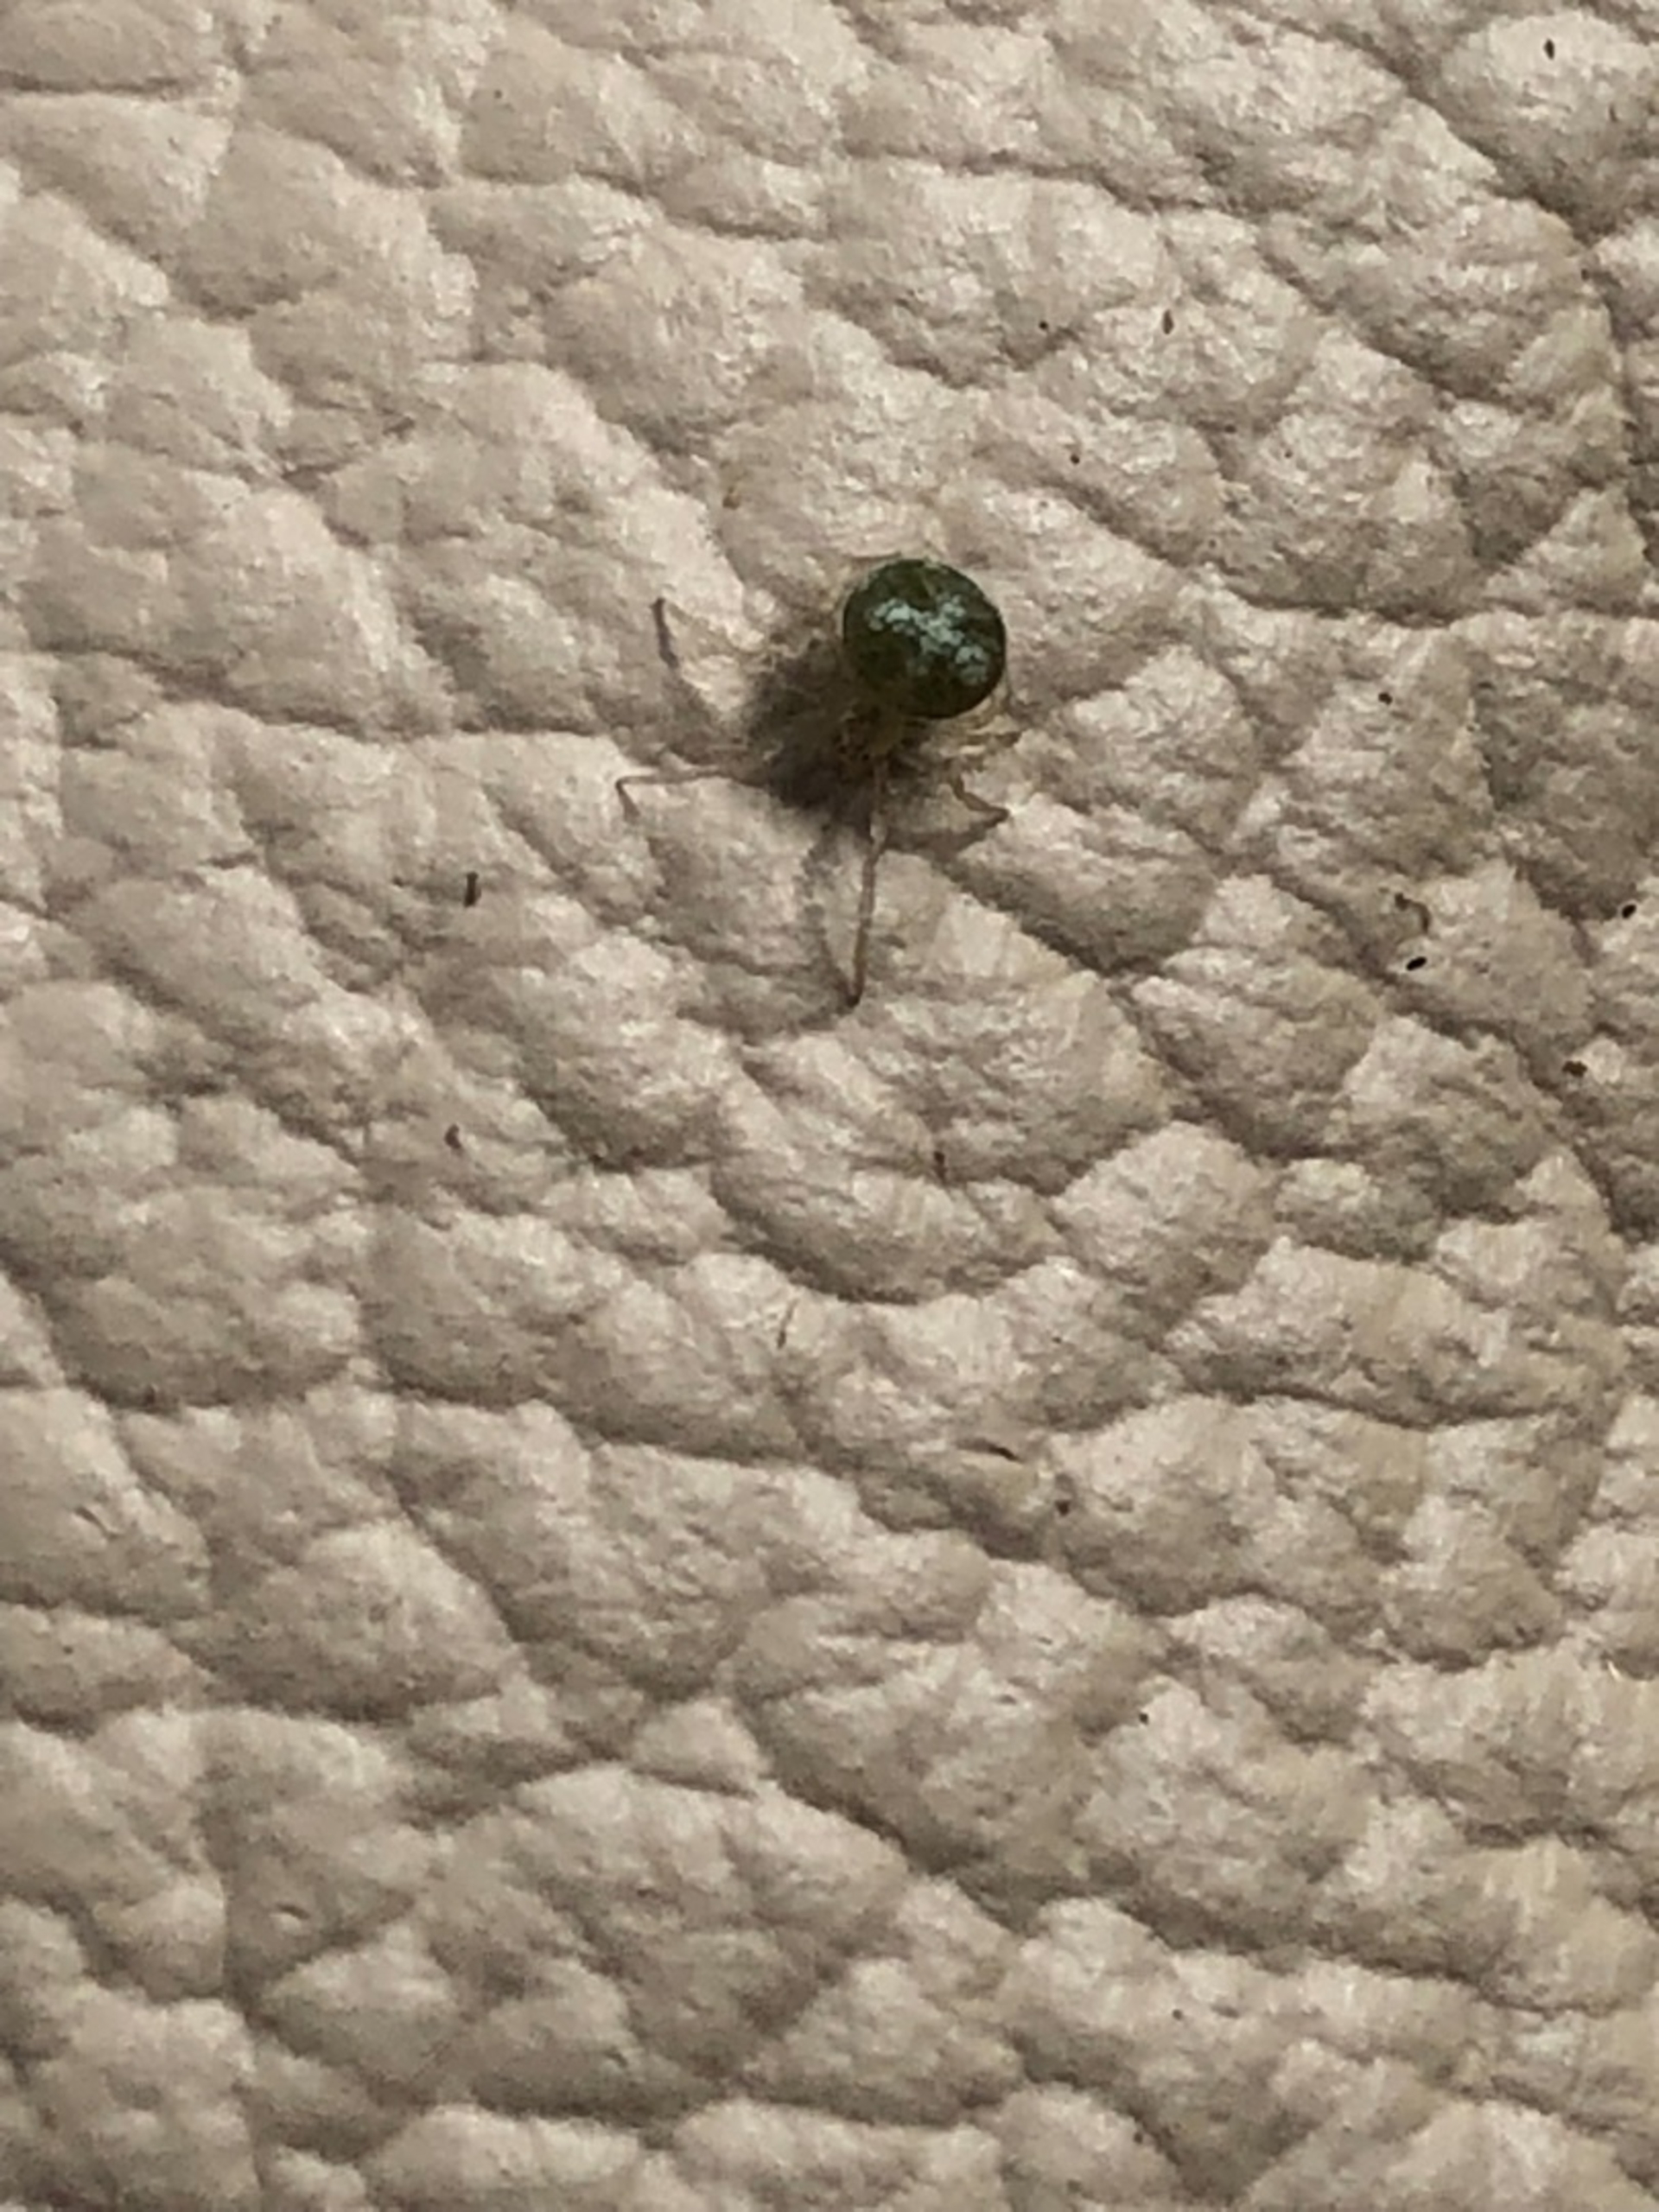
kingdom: Animalia
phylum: Arthropoda
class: Arachnida
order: Araneae
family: Theridiidae
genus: Paidiscura
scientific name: Paidiscura pallens
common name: Lille bladkugleedderkop
